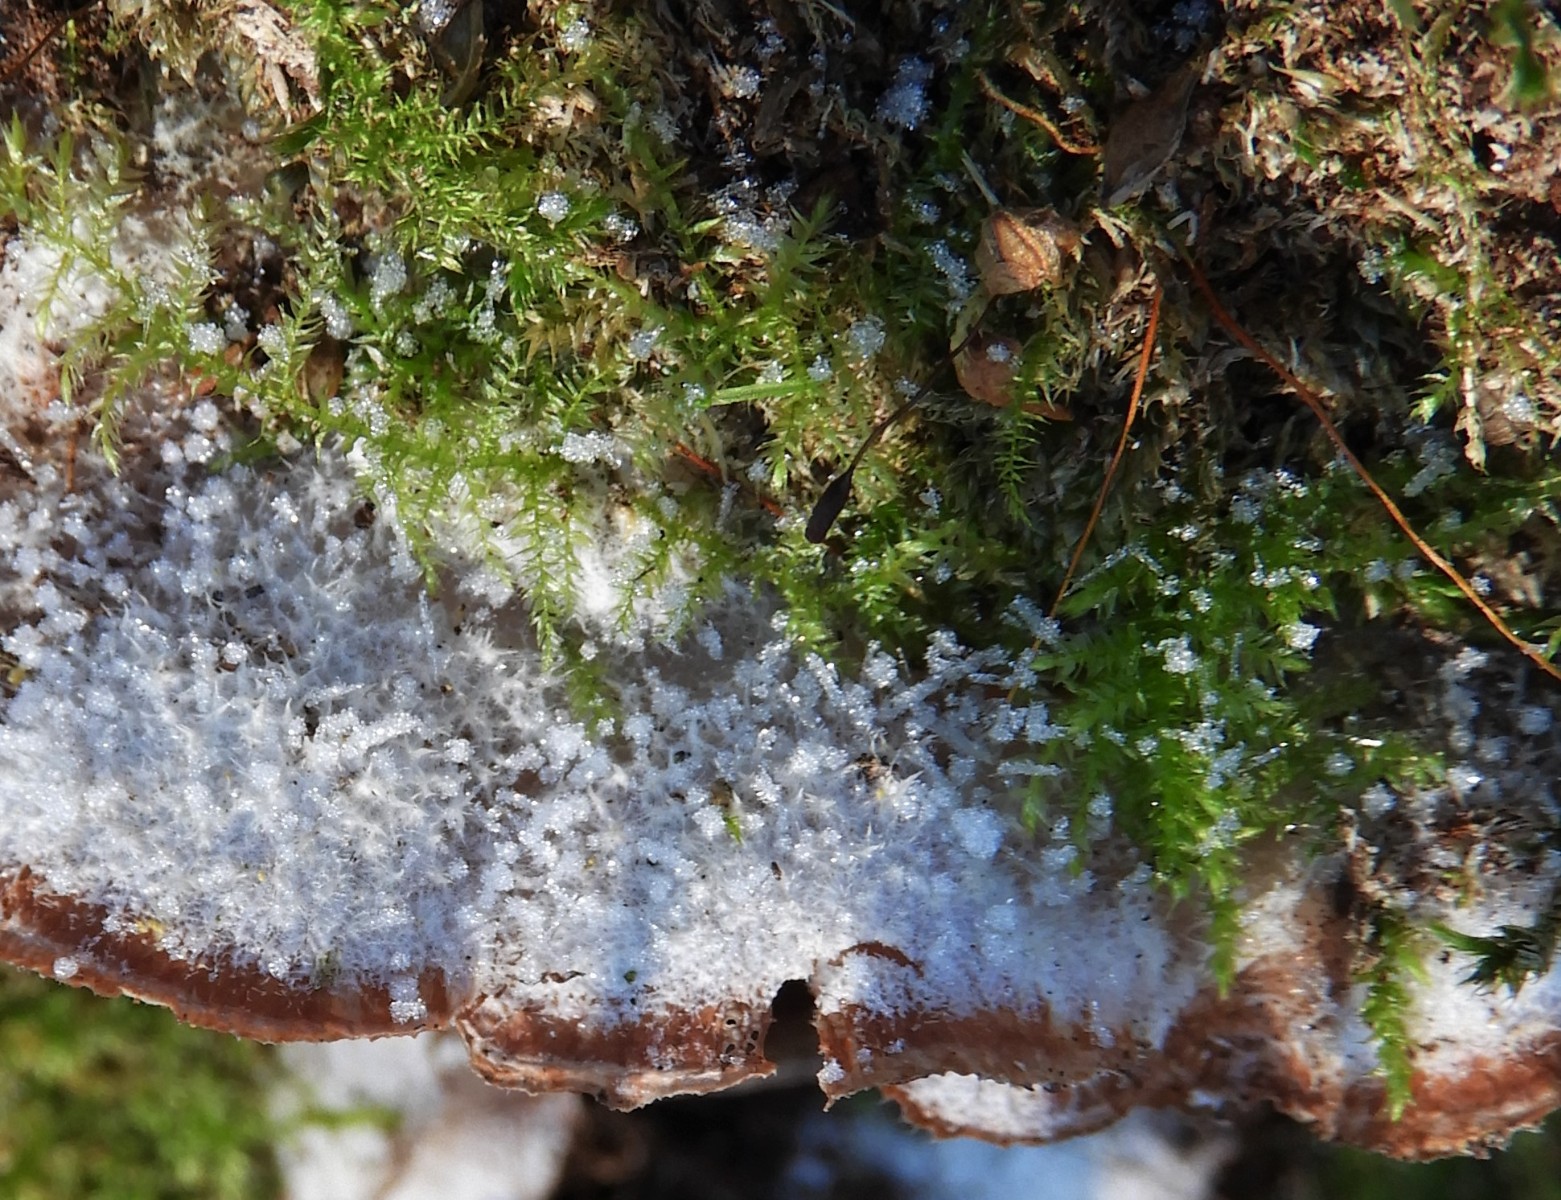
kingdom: Fungi
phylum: Basidiomycota
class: Agaricomycetes
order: Polyporales
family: Meruliaceae
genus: Phlebia
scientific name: Phlebia tremellosa
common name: bævrende åresvamp
